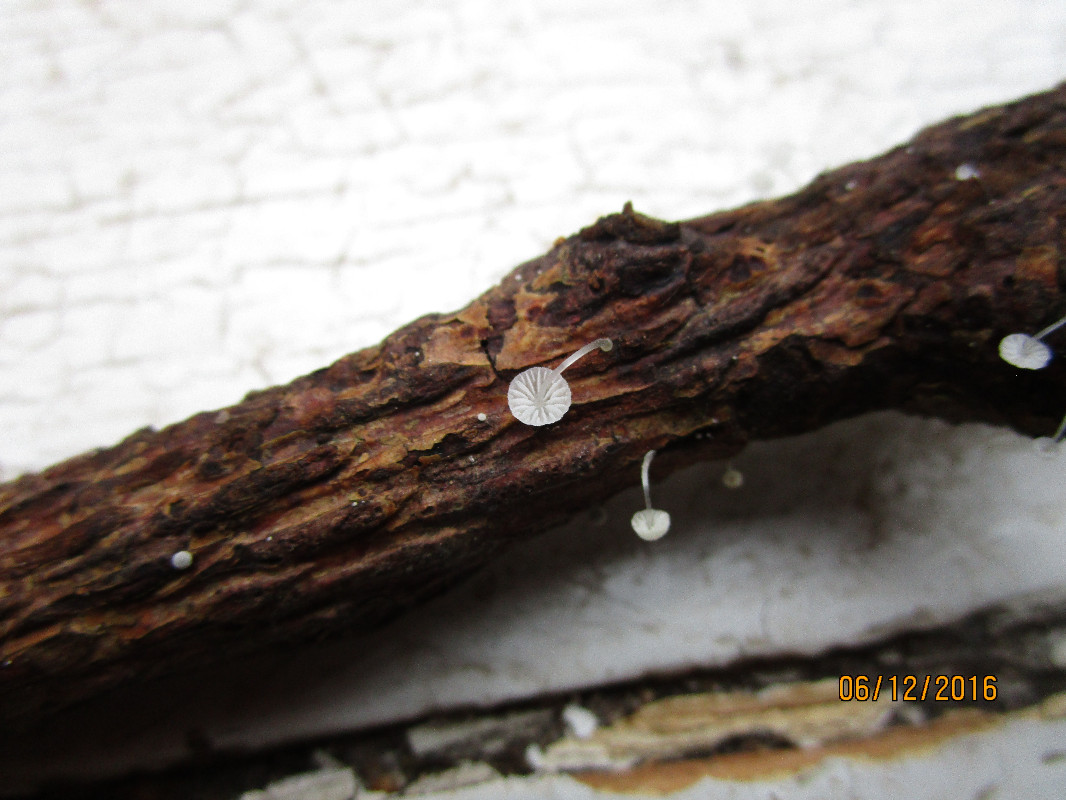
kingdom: Fungi
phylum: Basidiomycota
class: Agaricomycetes
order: Agaricales
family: Mycenaceae
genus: Mycena
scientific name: Mycena tenerrima
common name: pudret huesvamp
